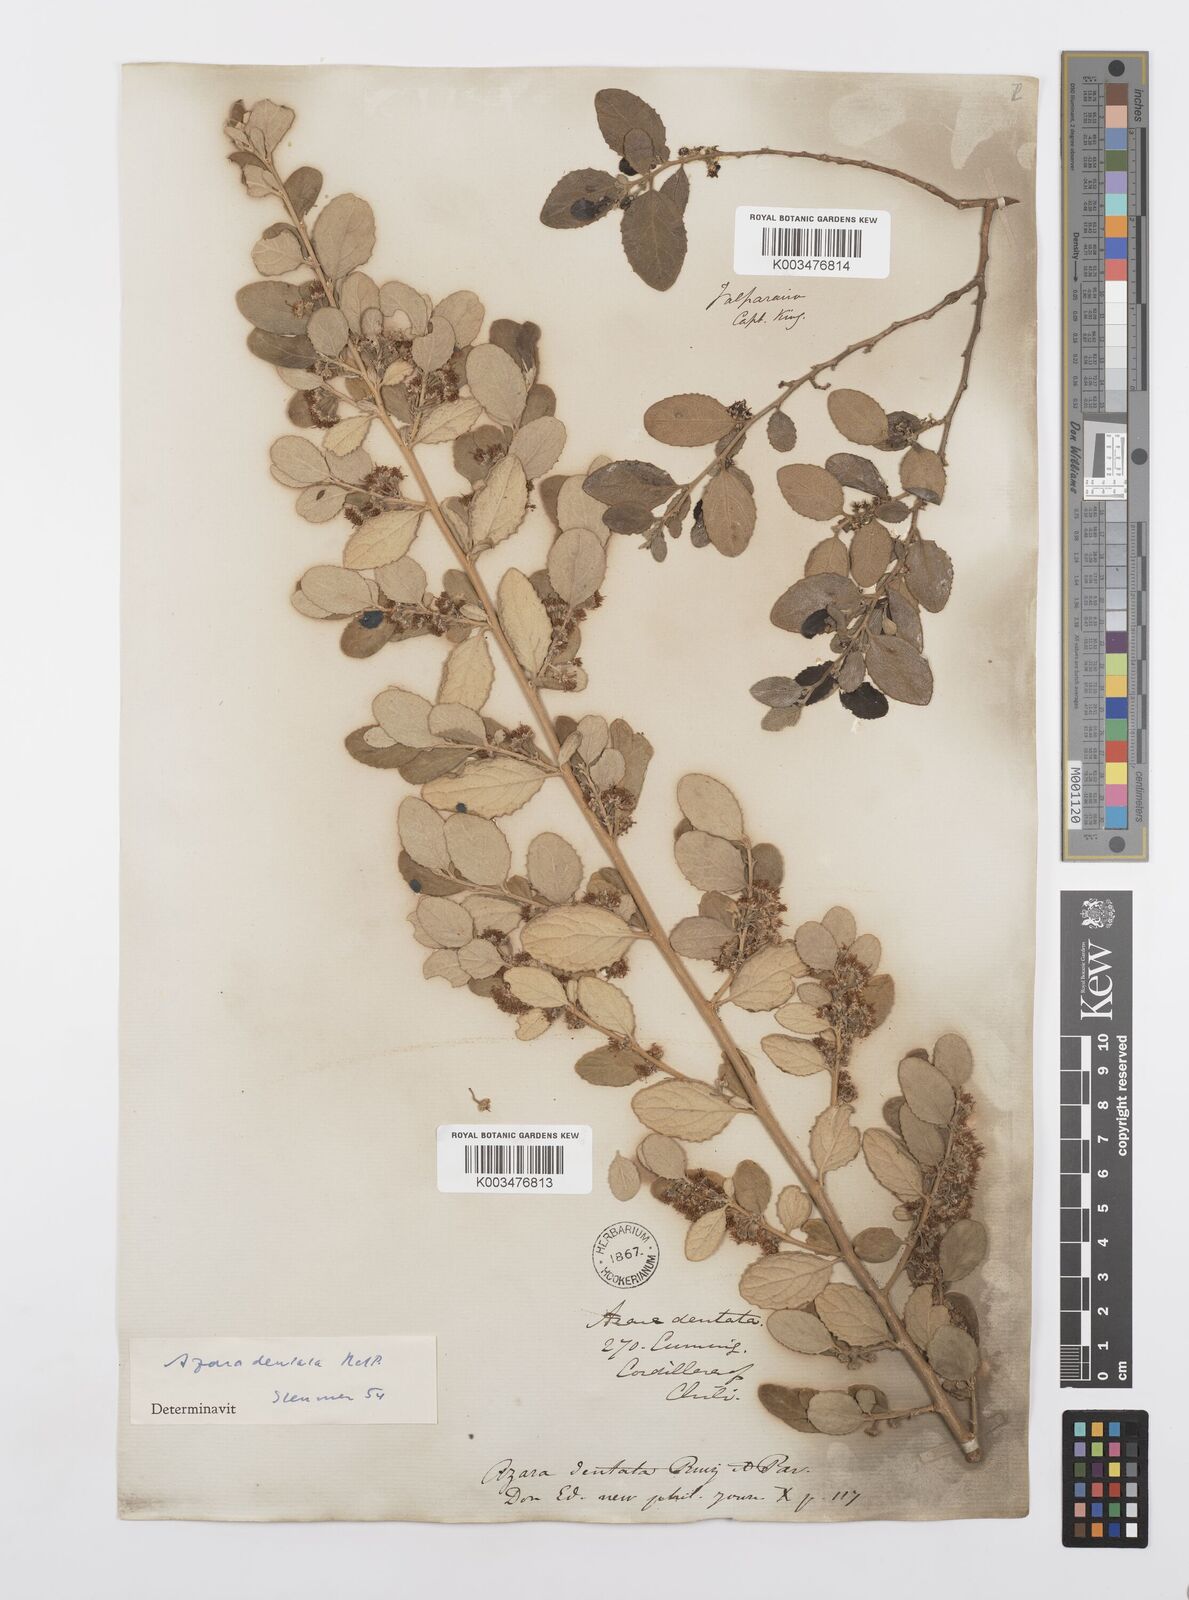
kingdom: Plantae
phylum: Tracheophyta
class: Magnoliopsida
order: Malpighiales
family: Salicaceae
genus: Azara
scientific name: Azara dentata
